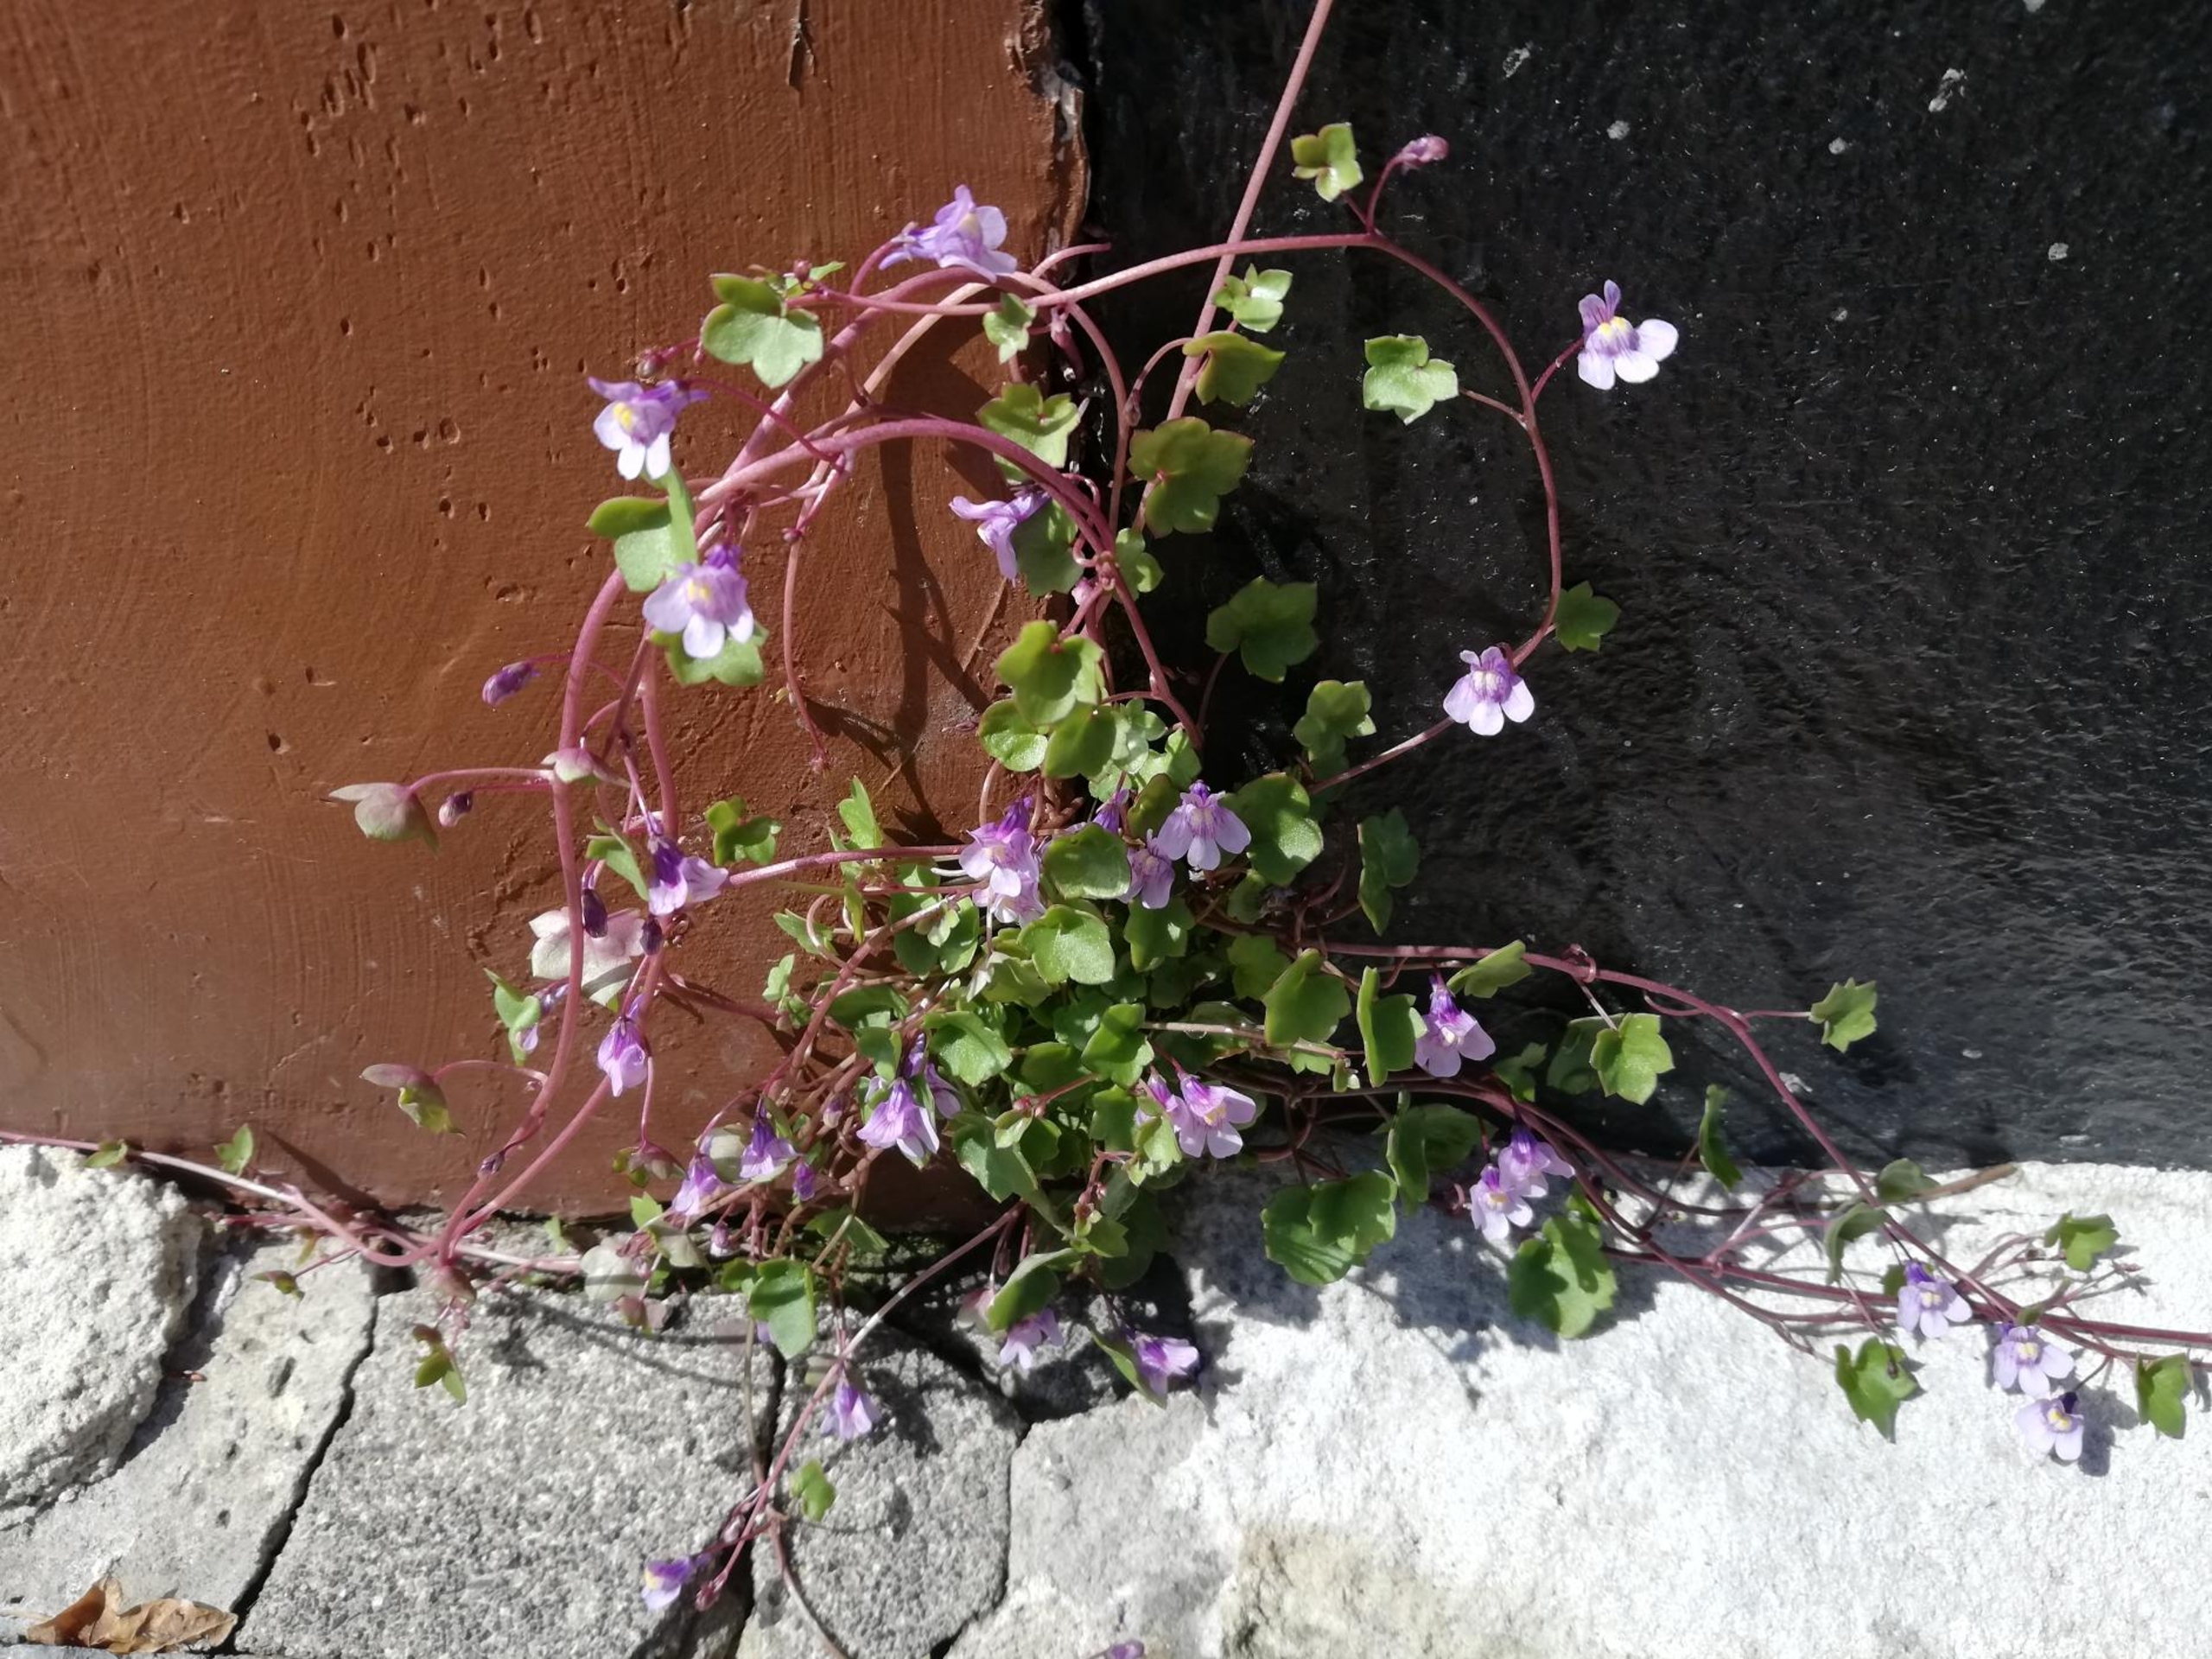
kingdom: Plantae
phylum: Tracheophyta
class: Magnoliopsida
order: Lamiales
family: Plantaginaceae
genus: Cymbalaria
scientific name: Cymbalaria muralis
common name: Vedbend-torskemund
